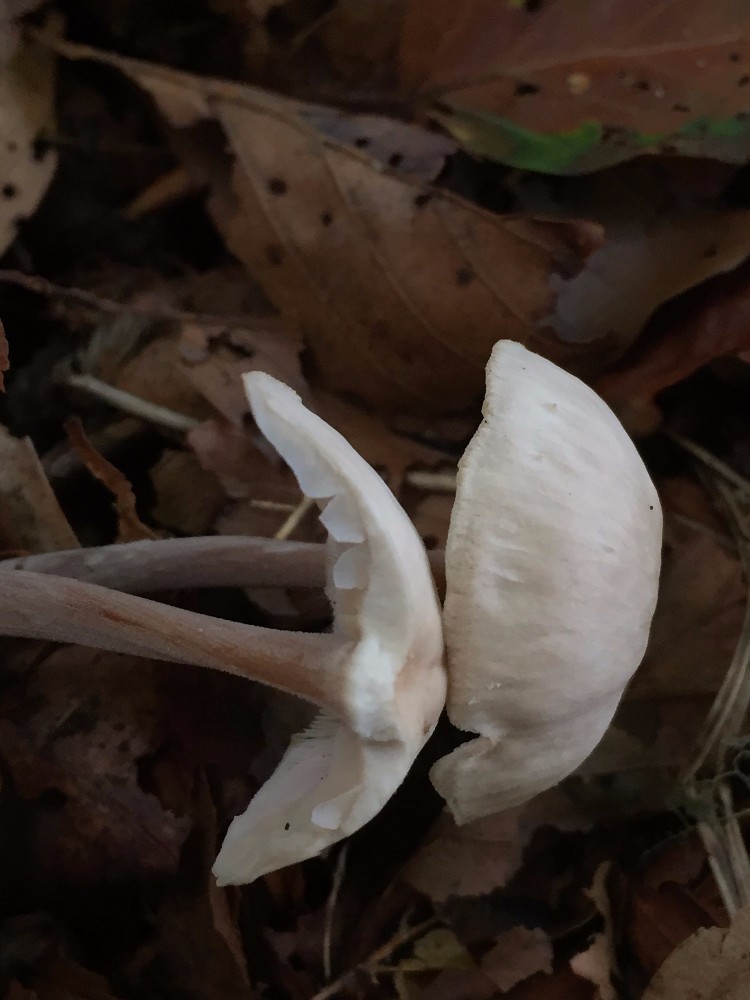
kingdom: Fungi
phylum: Basidiomycota
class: Agaricomycetes
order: Agaricales
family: Omphalotaceae
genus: Collybiopsis
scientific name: Collybiopsis confluens
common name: knippe-fladhat
